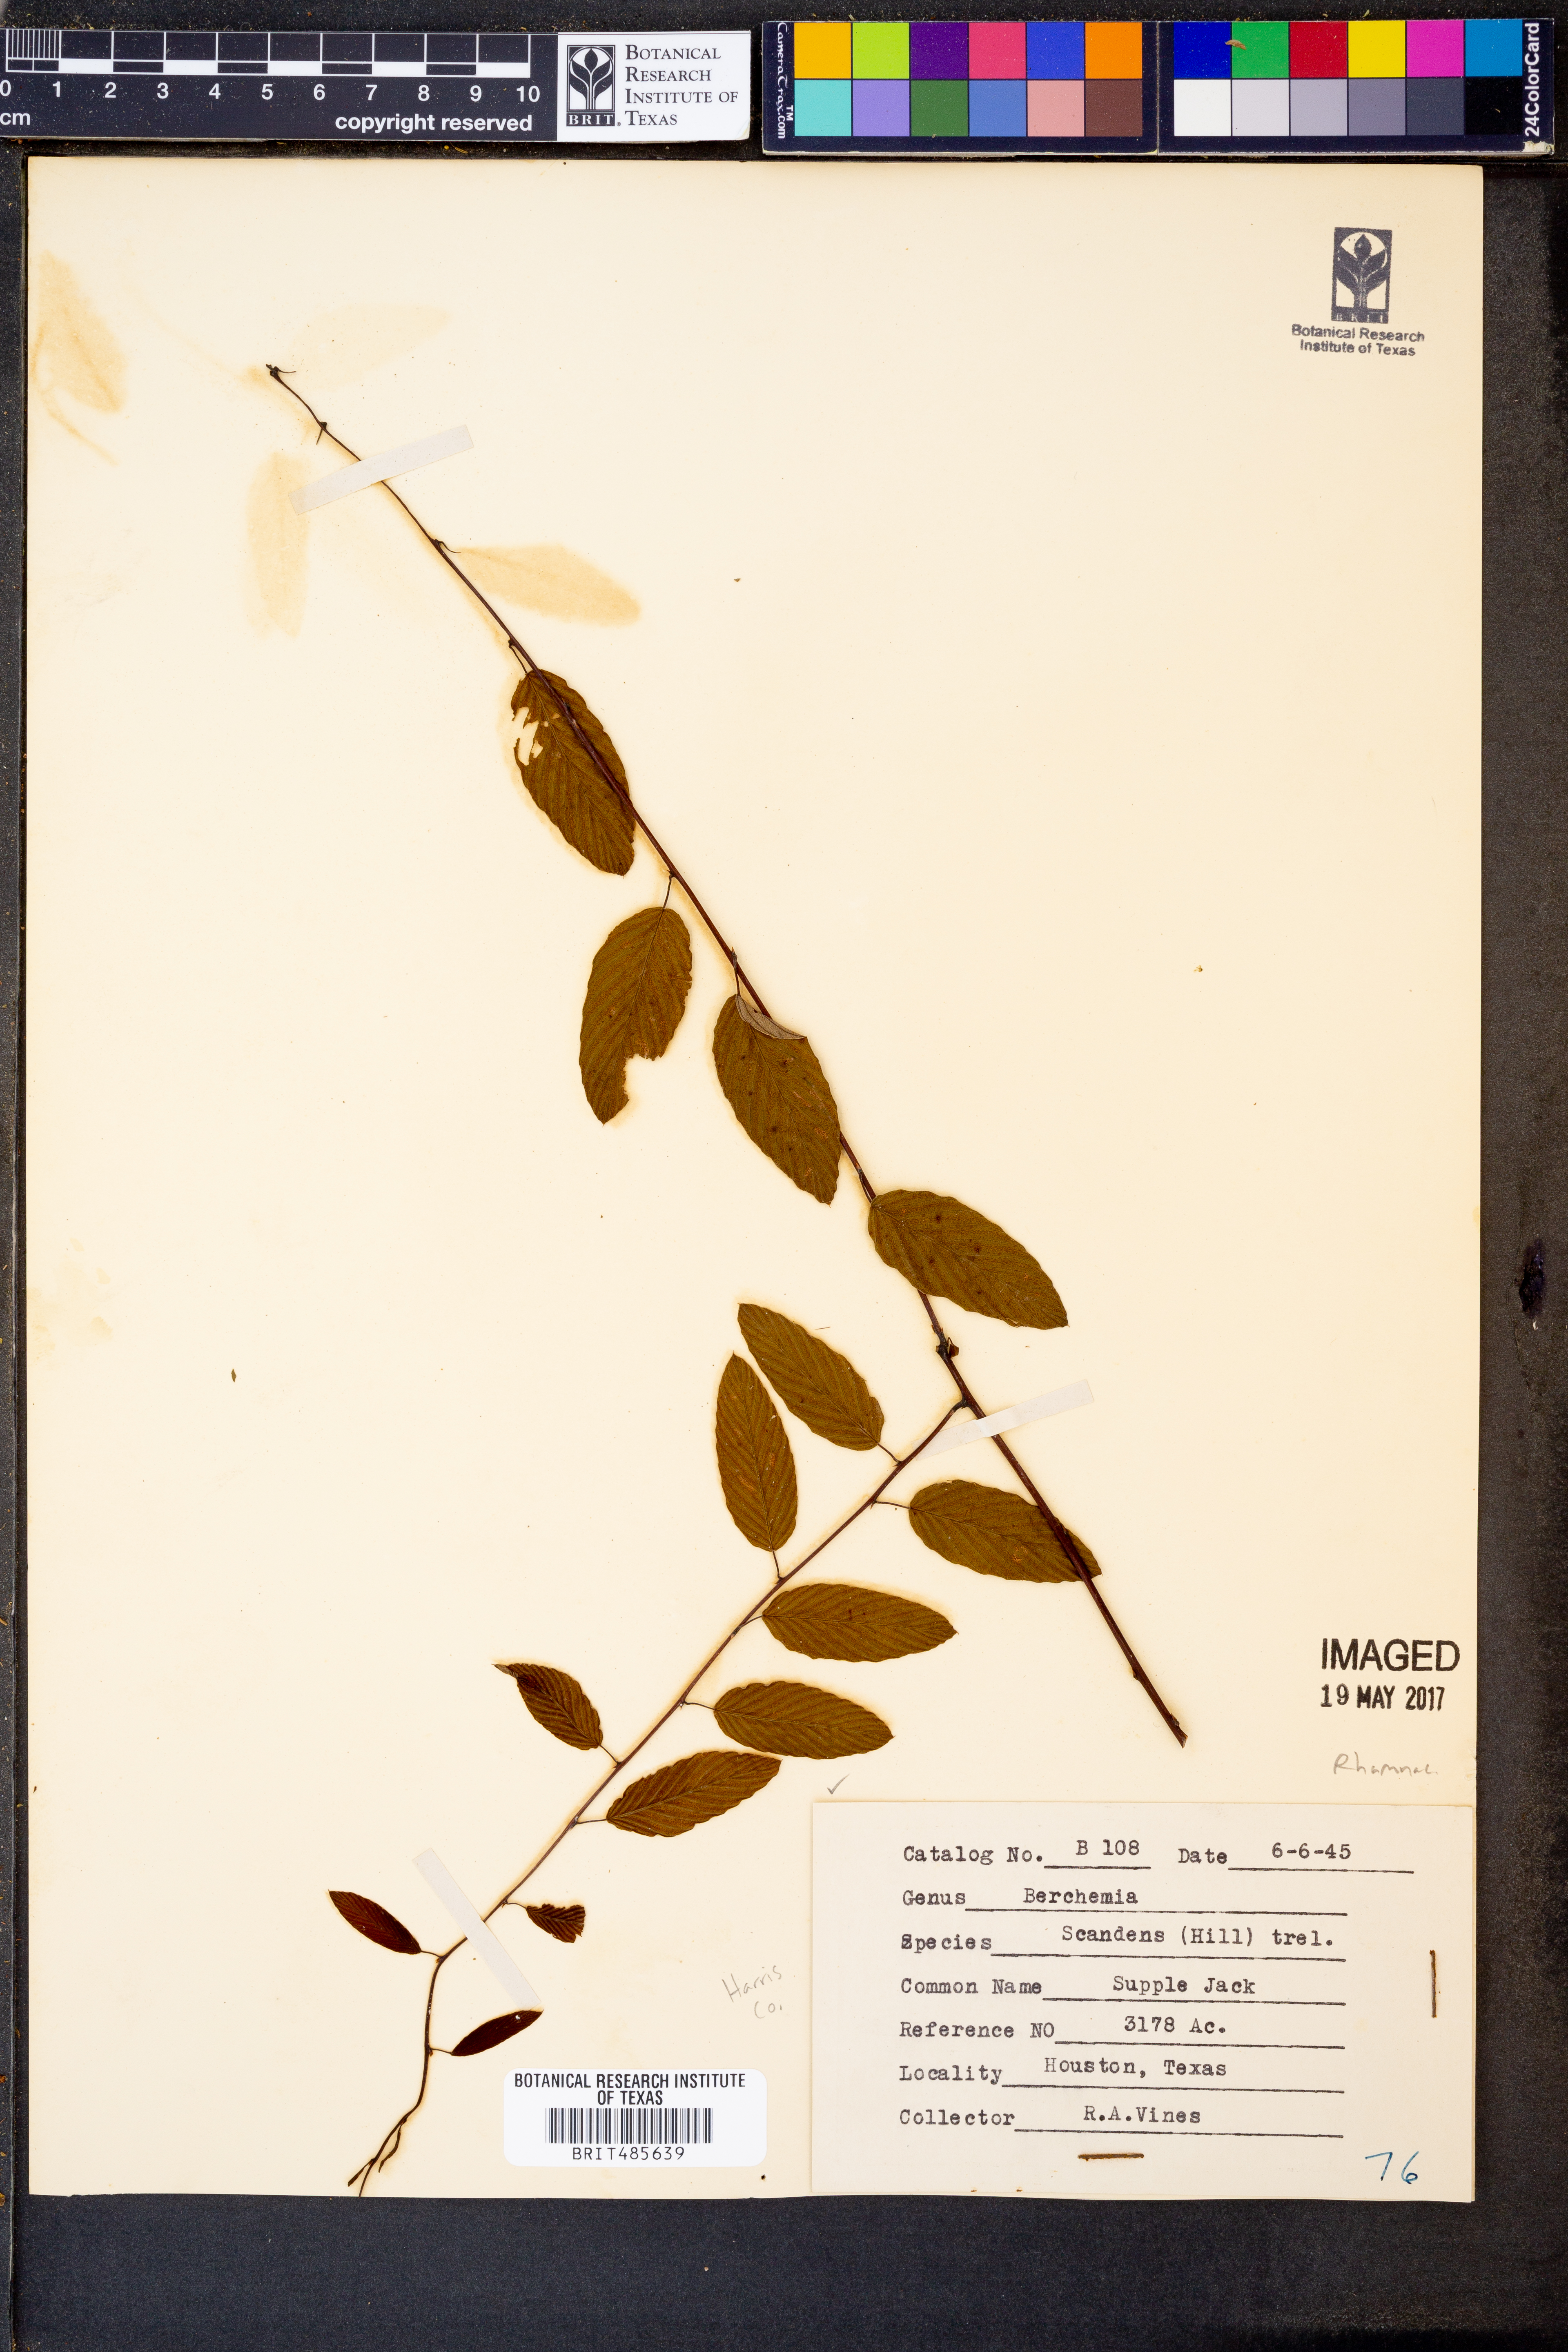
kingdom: Plantae
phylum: Tracheophyta
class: Magnoliopsida
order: Rosales
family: Rhamnaceae
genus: Berchemia
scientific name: Berchemia scandens
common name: Supplejack
